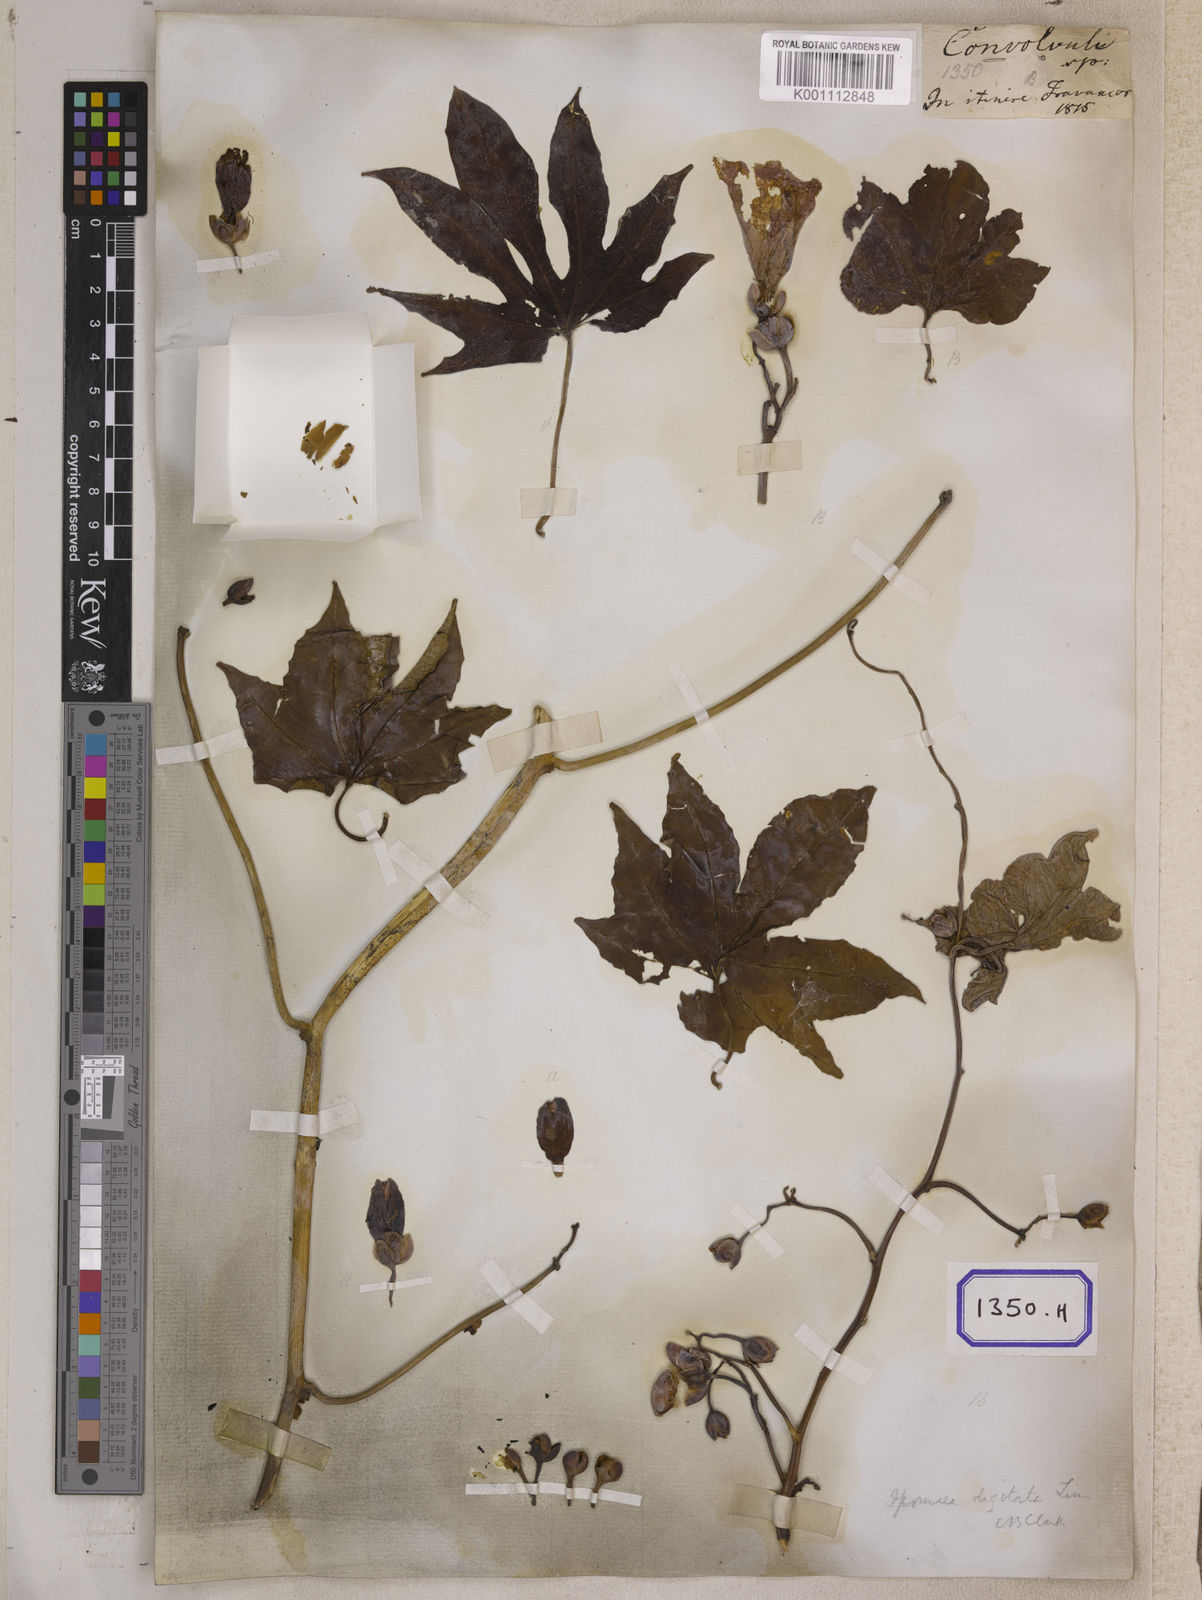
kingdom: Plantae
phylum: Tracheophyta
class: Magnoliopsida
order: Solanales
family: Convolvulaceae
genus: Ipomoea
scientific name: Ipomoea mauritiana
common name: Mauritanian convolvulus
